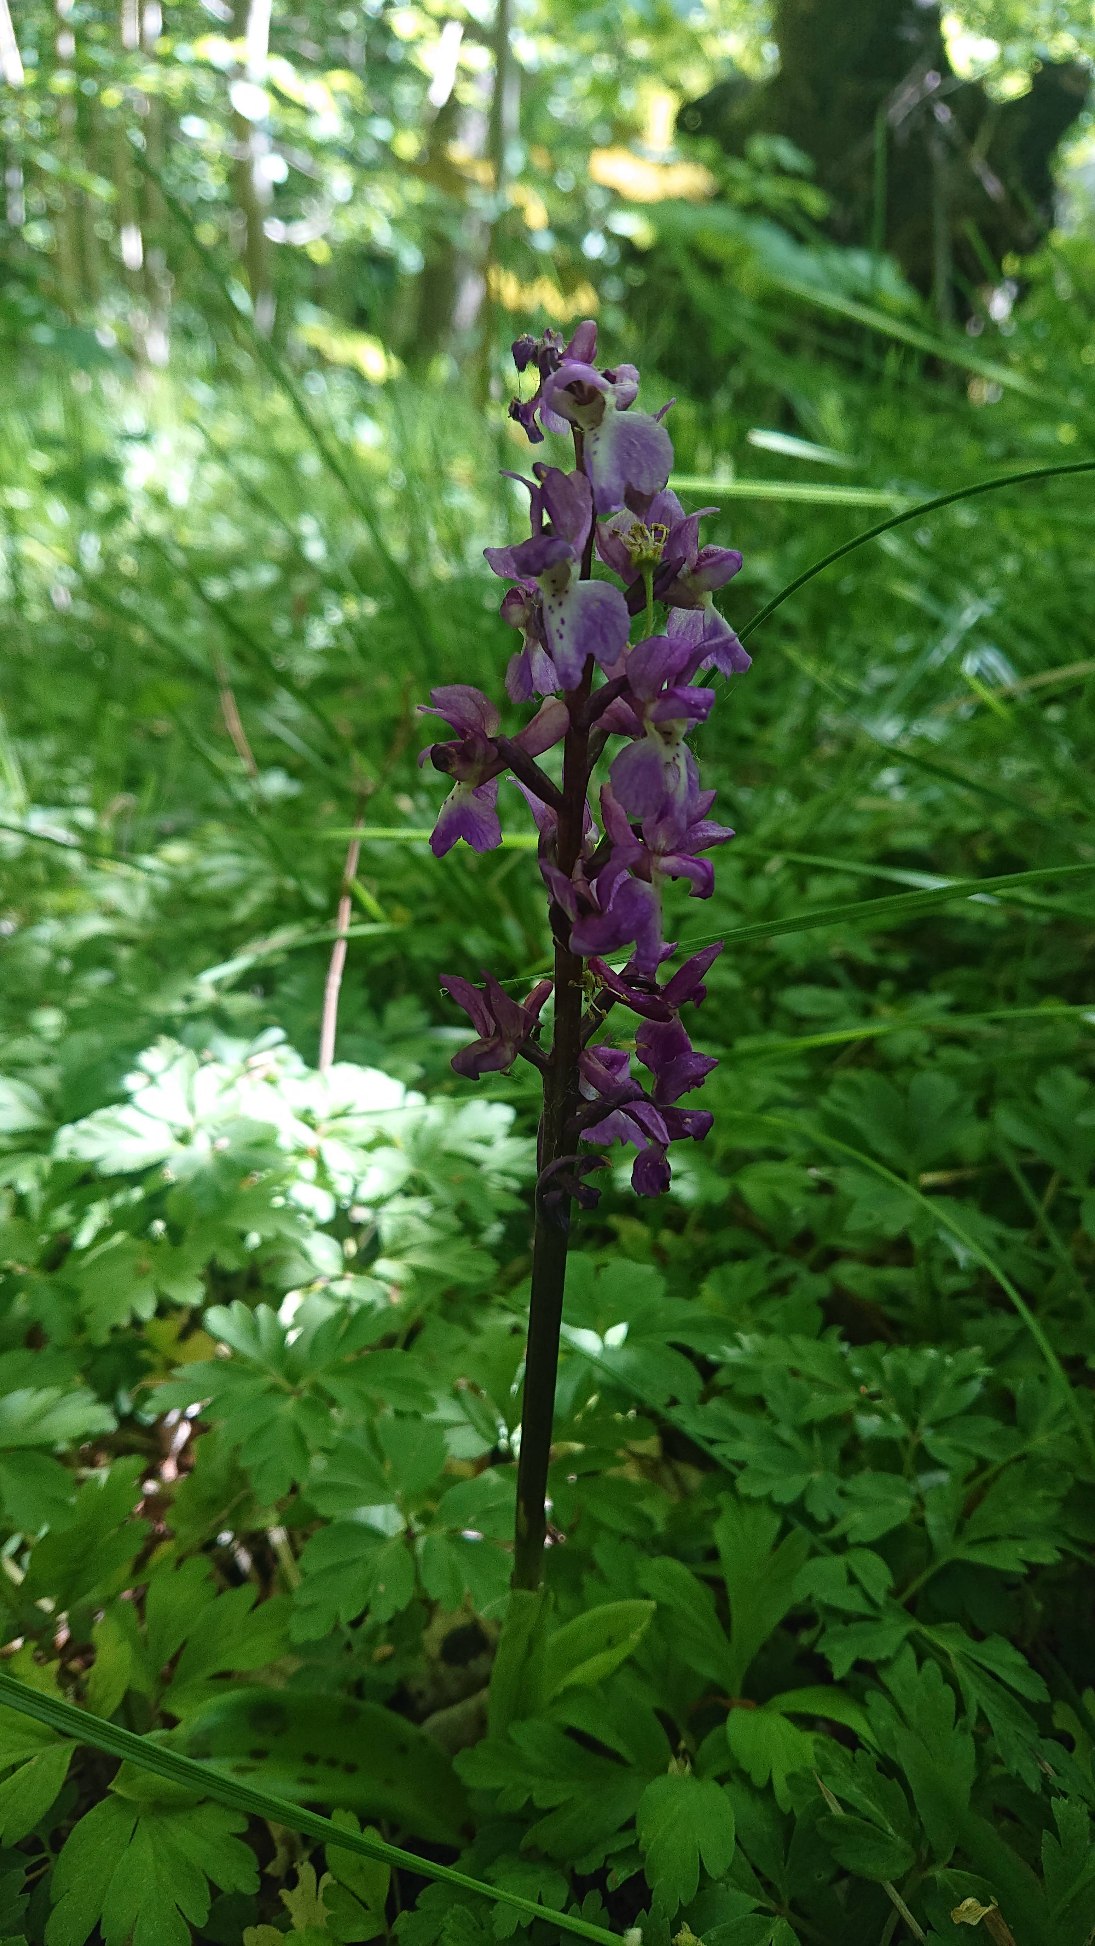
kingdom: Plantae
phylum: Tracheophyta
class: Liliopsida
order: Asparagales
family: Orchidaceae
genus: Orchis
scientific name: Orchis mascula
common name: Tyndakset gøgeurt
